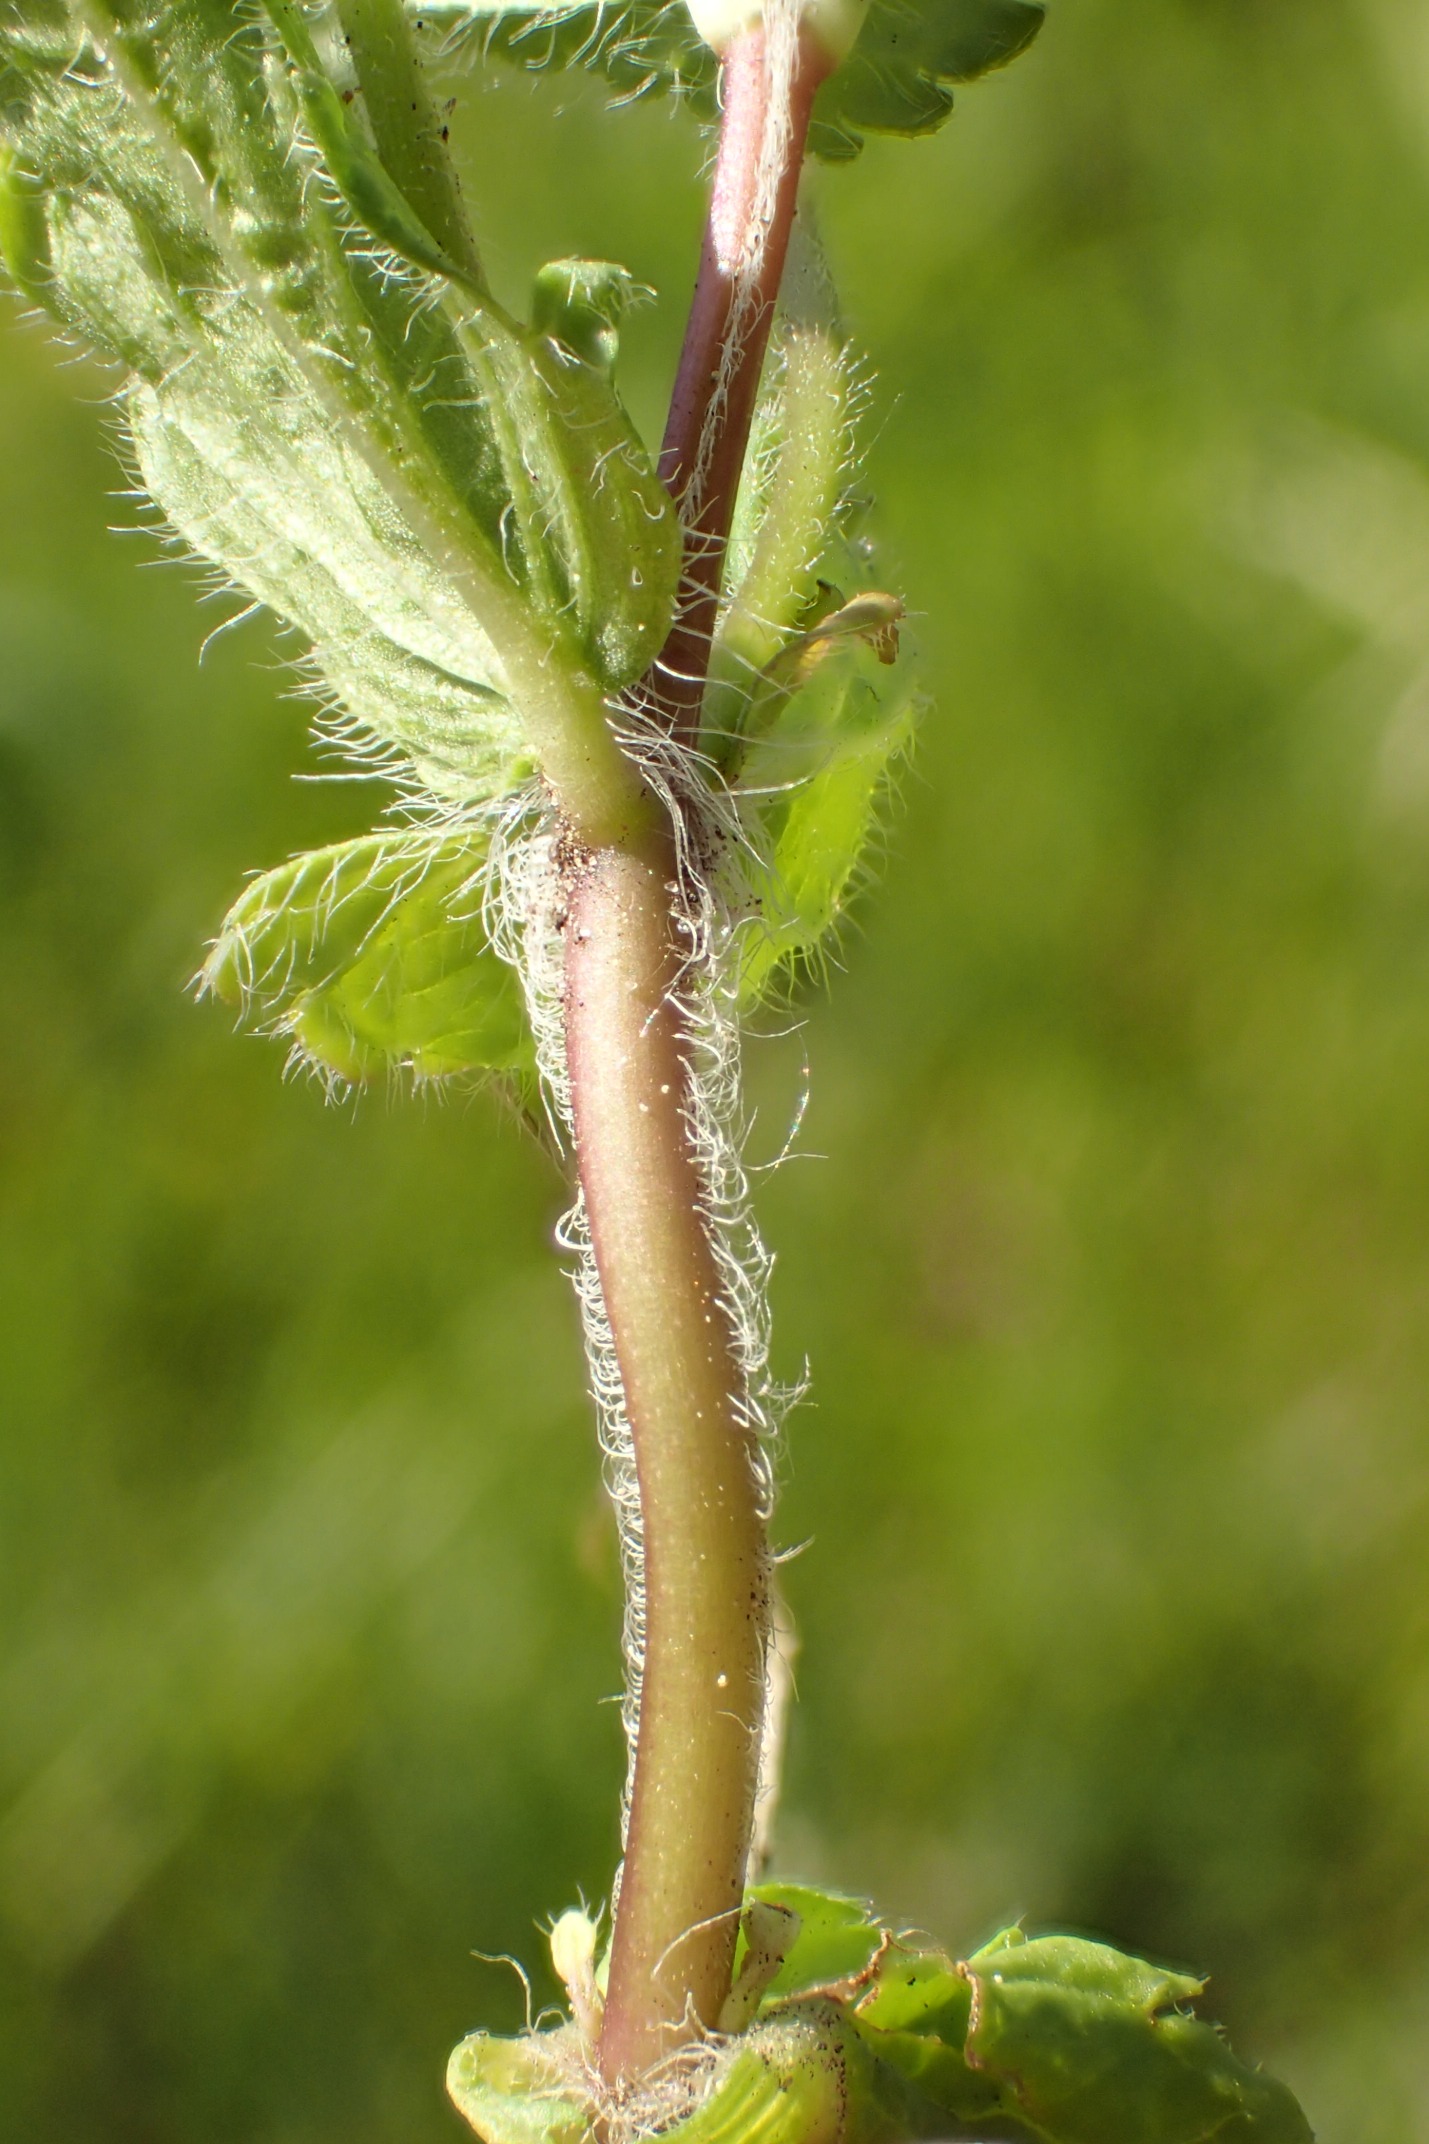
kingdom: Plantae
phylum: Tracheophyta
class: Magnoliopsida
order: Lamiales
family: Plantaginaceae
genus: Veronica
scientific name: Veronica chamaedrys
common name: Tveskægget ærenpris
